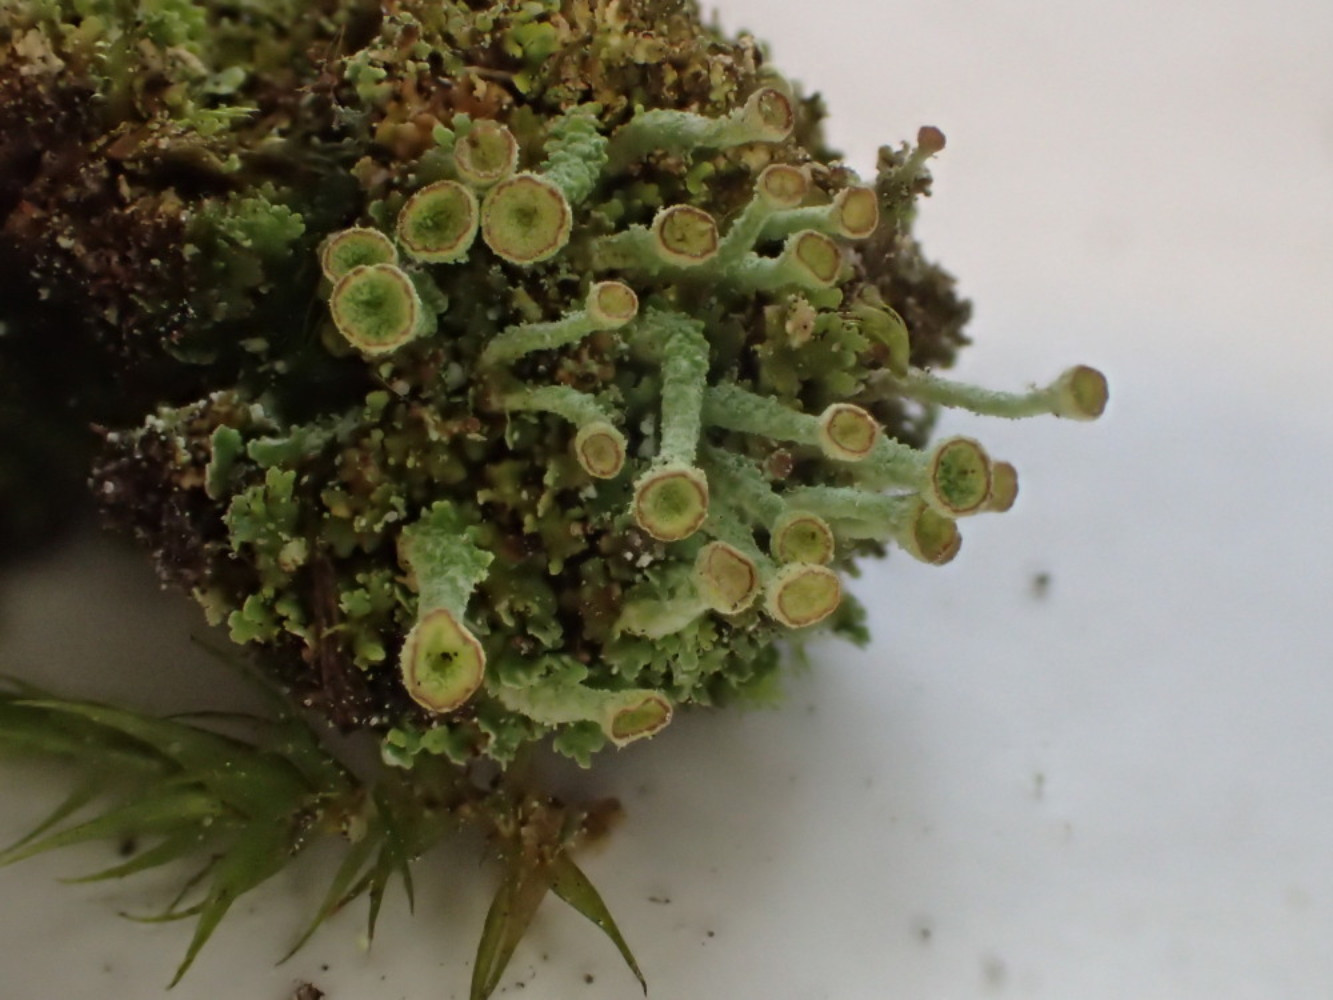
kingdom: Fungi
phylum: Ascomycota
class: Lecanoromycetes
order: Lecanorales
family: Cladoniaceae
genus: Cladonia
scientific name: Cladonia
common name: brungrøn bægerlav
